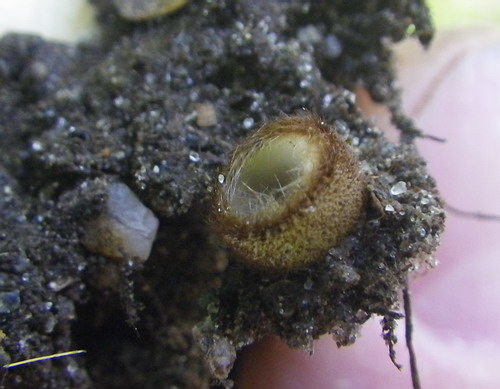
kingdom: Fungi
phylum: Ascomycota
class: Pezizomycetes
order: Pezizales
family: Pyronemataceae
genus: Humaria
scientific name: Humaria hemisphaerica
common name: halvkugleformet børstebæger
